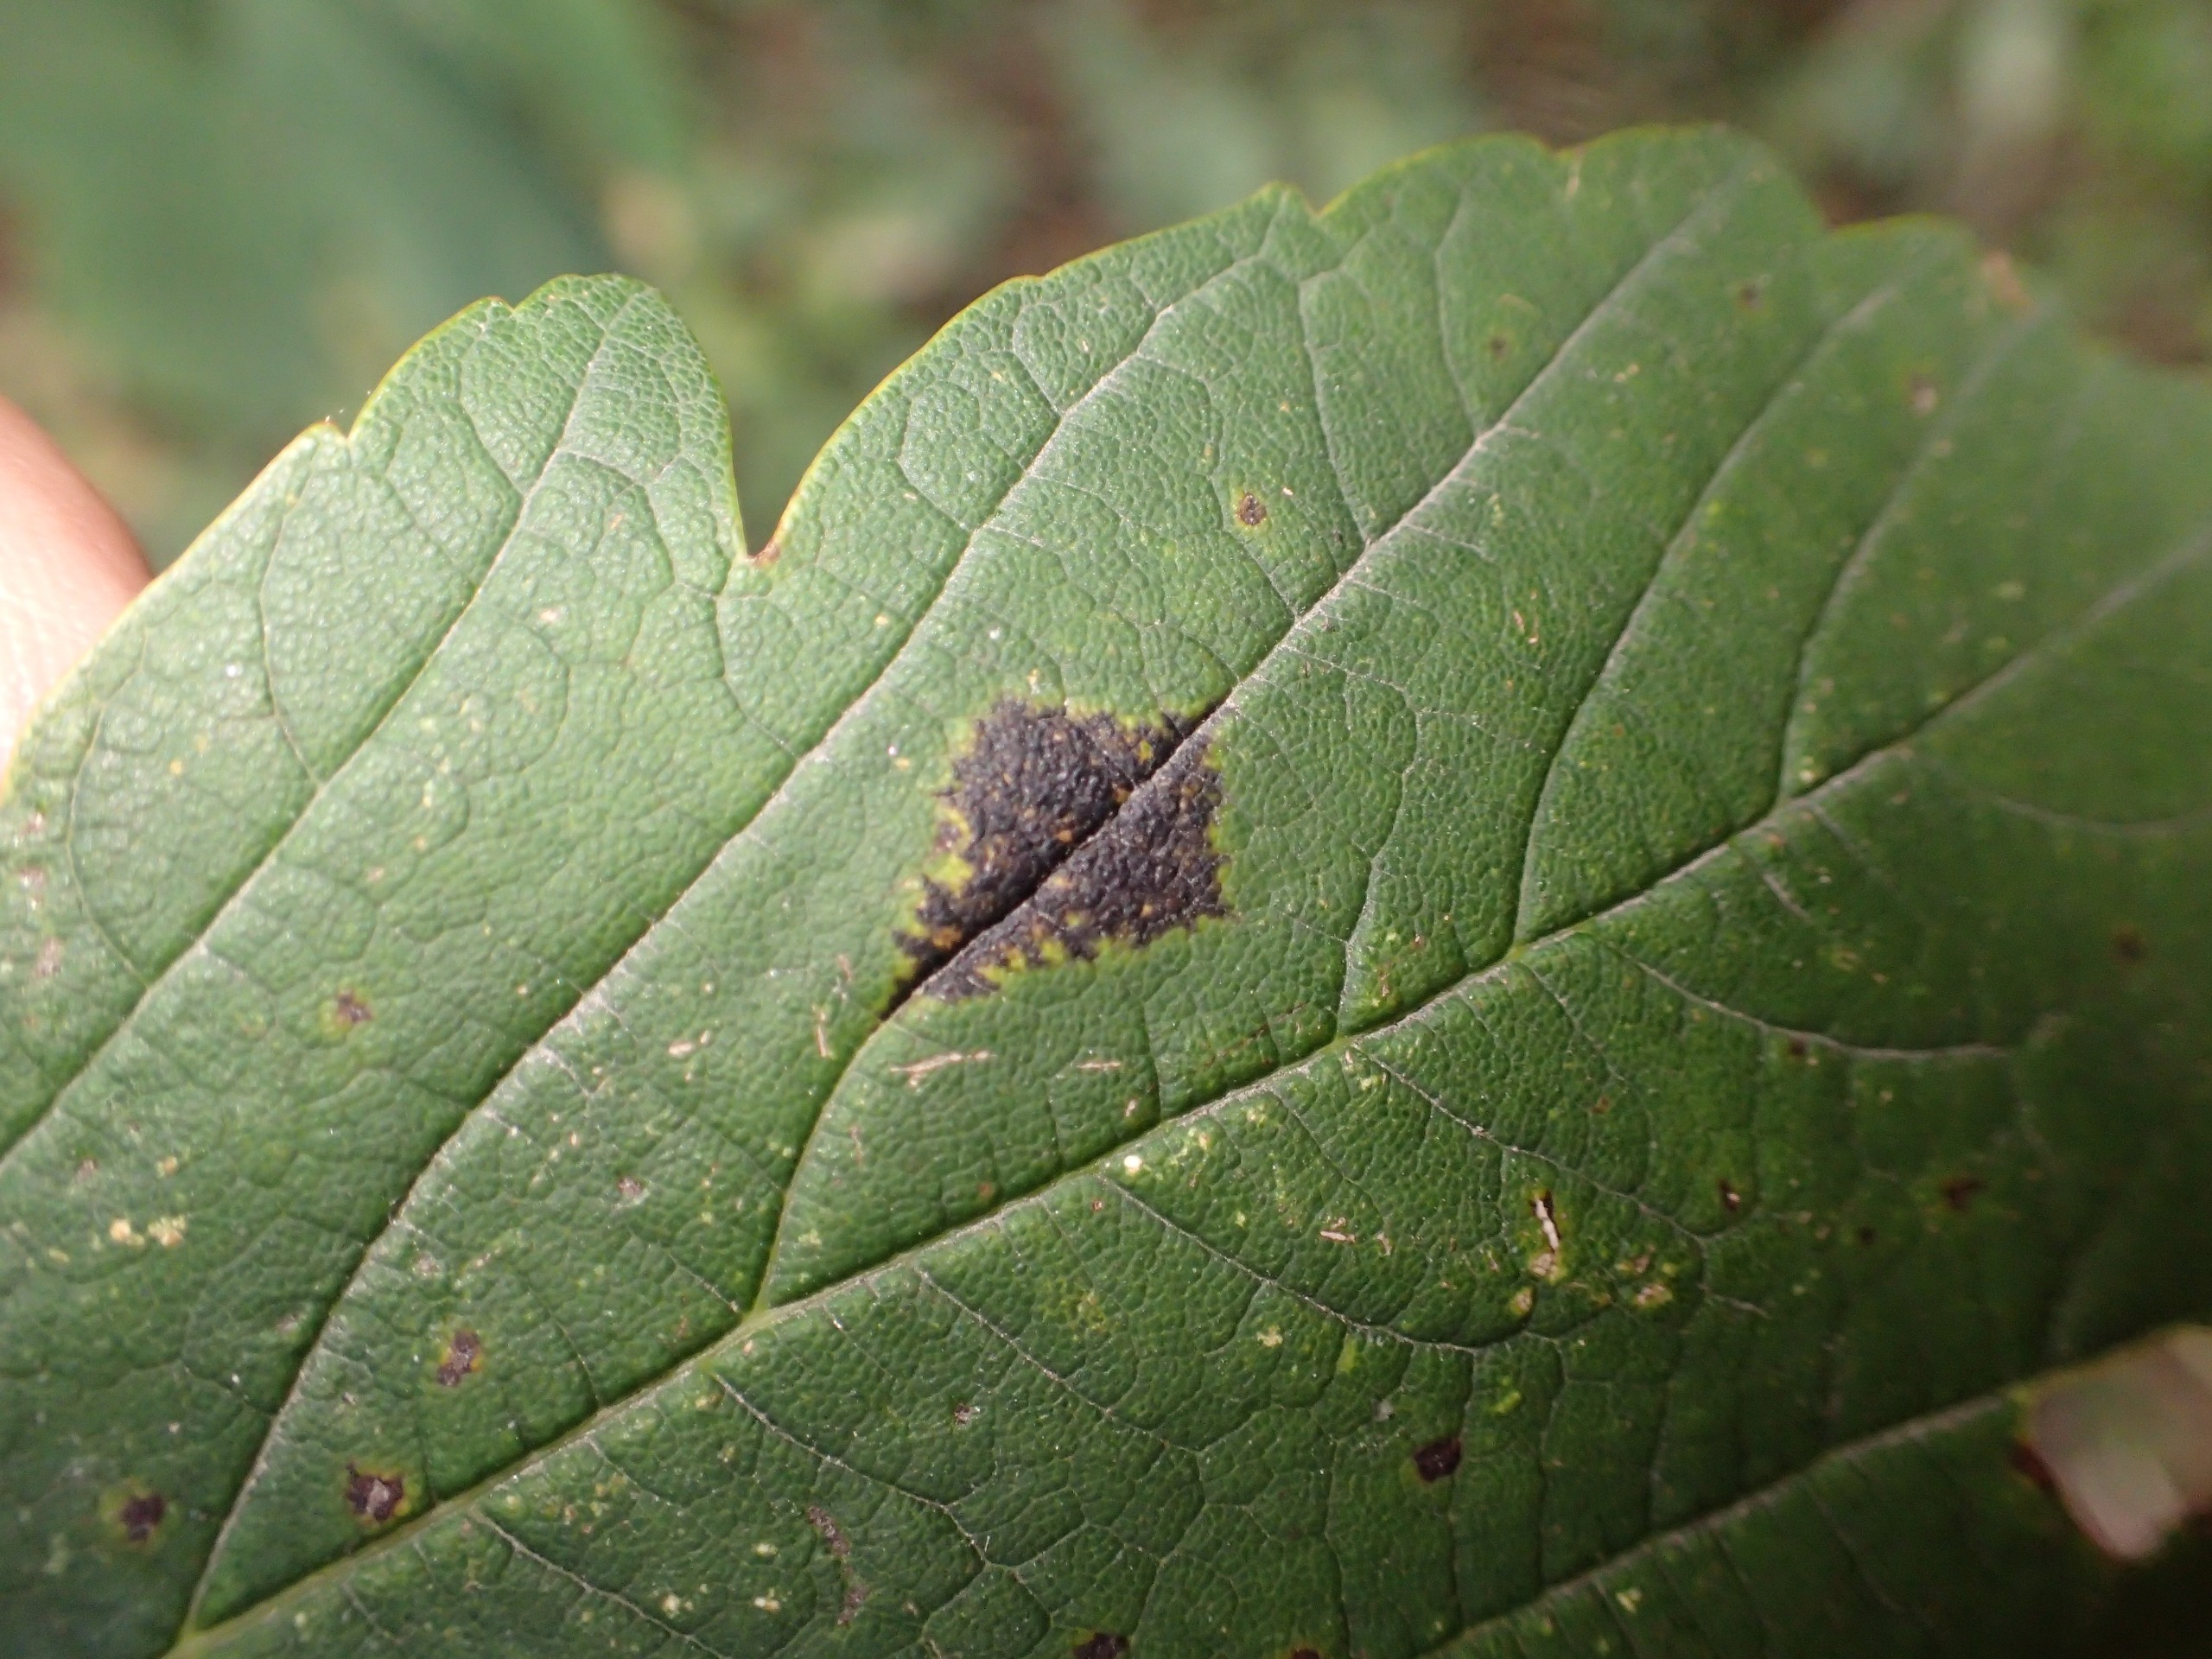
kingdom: Fungi
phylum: Ascomycota
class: Leotiomycetes
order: Rhytismatales
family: Rhytismataceae
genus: Rhytisma
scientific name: Rhytisma acerinum
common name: Ahorn-rynkeplet
